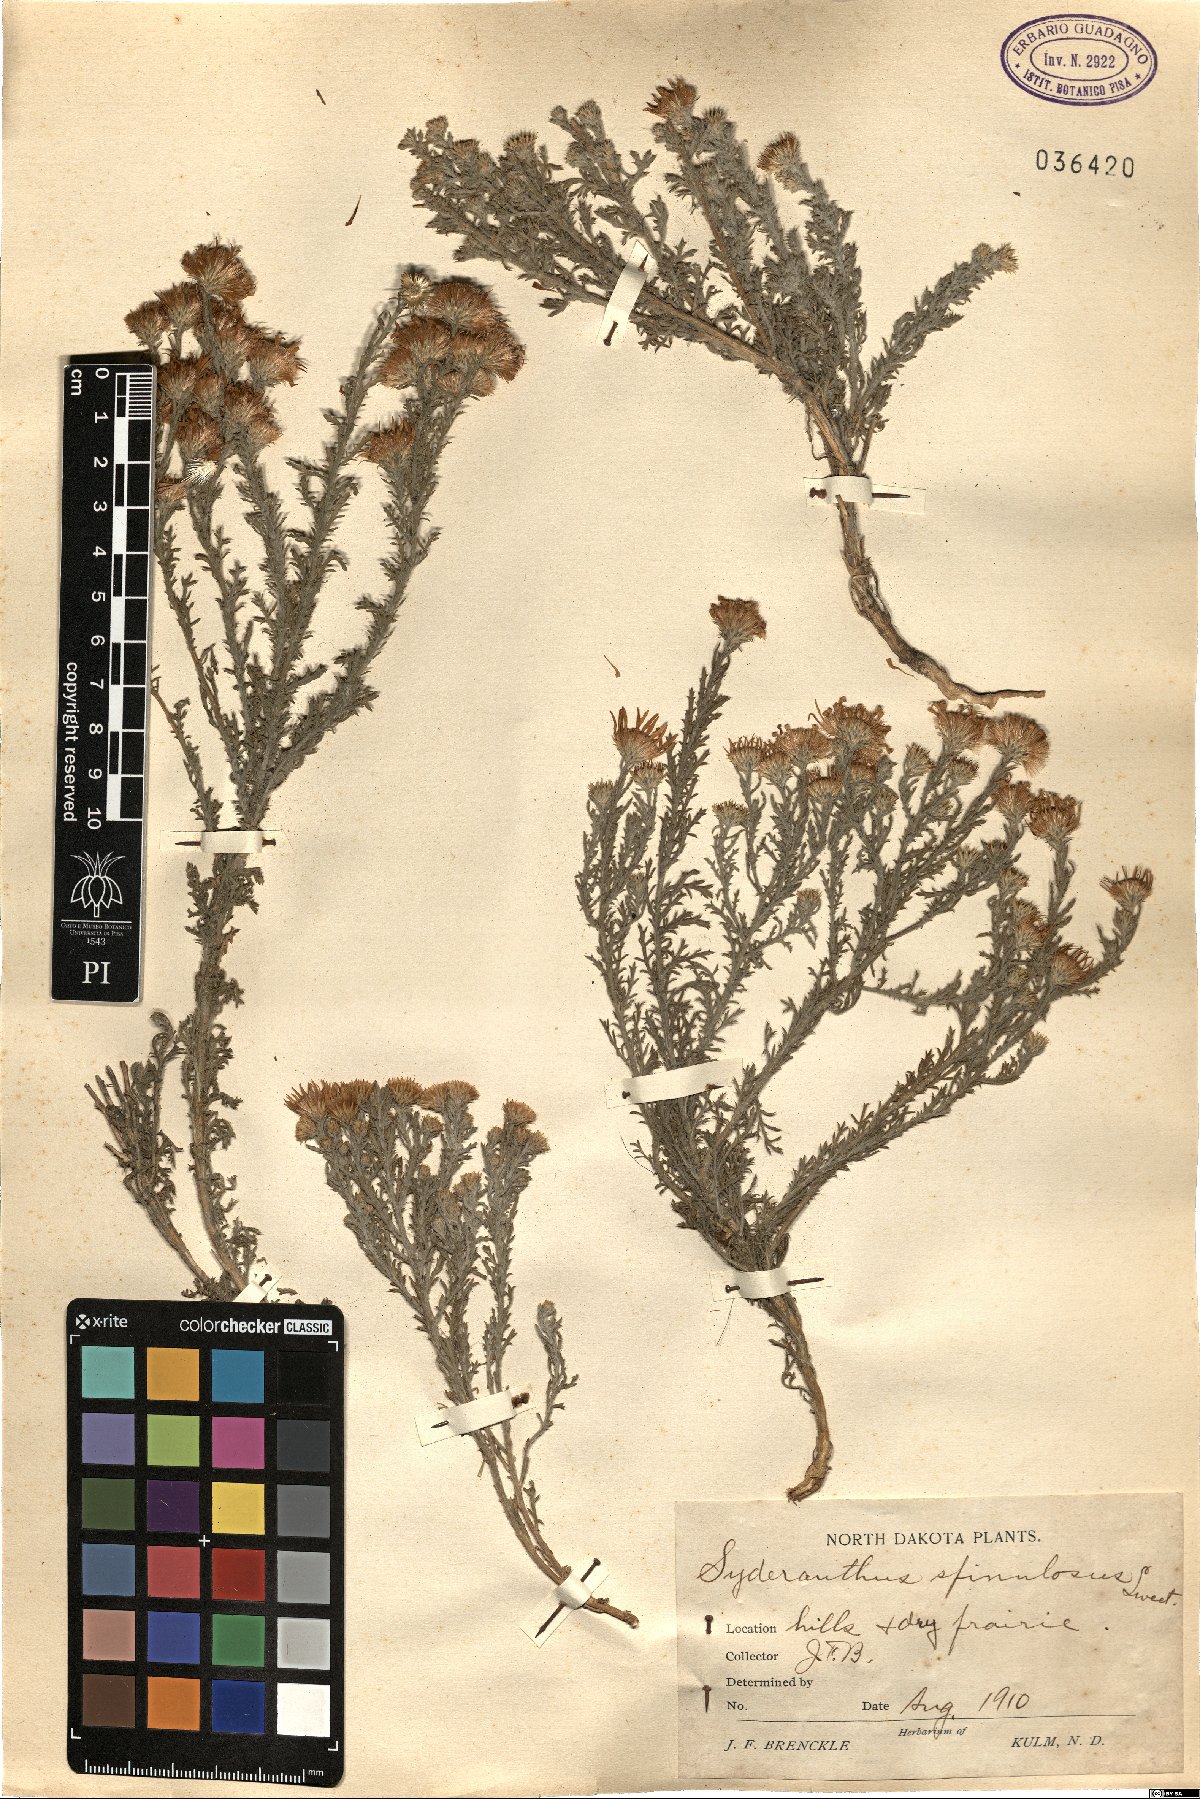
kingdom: Plantae
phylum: Tracheophyta
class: Magnoliopsida
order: Asterales
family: Asteraceae
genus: Xanthisma
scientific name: Xanthisma spinulosum
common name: Spiny goldenweed
